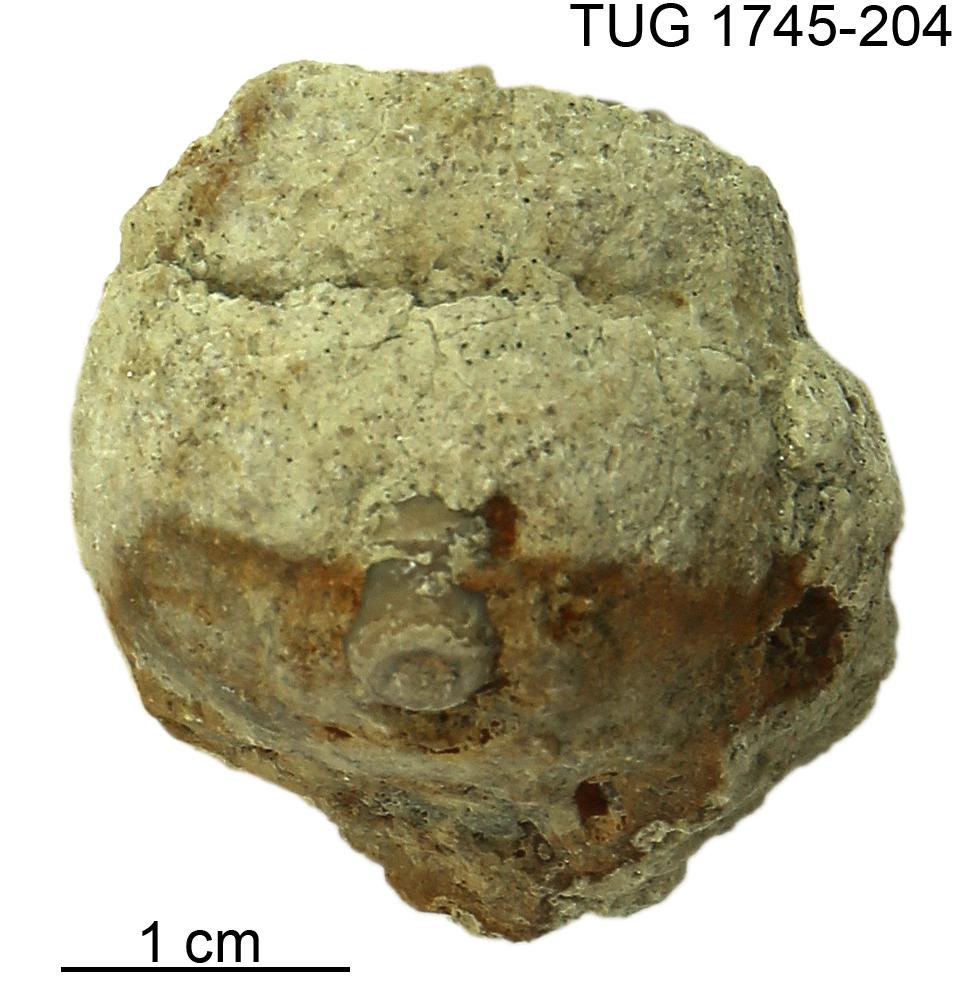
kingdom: Animalia
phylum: Mollusca
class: Cephalopoda
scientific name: Cephalopoda
